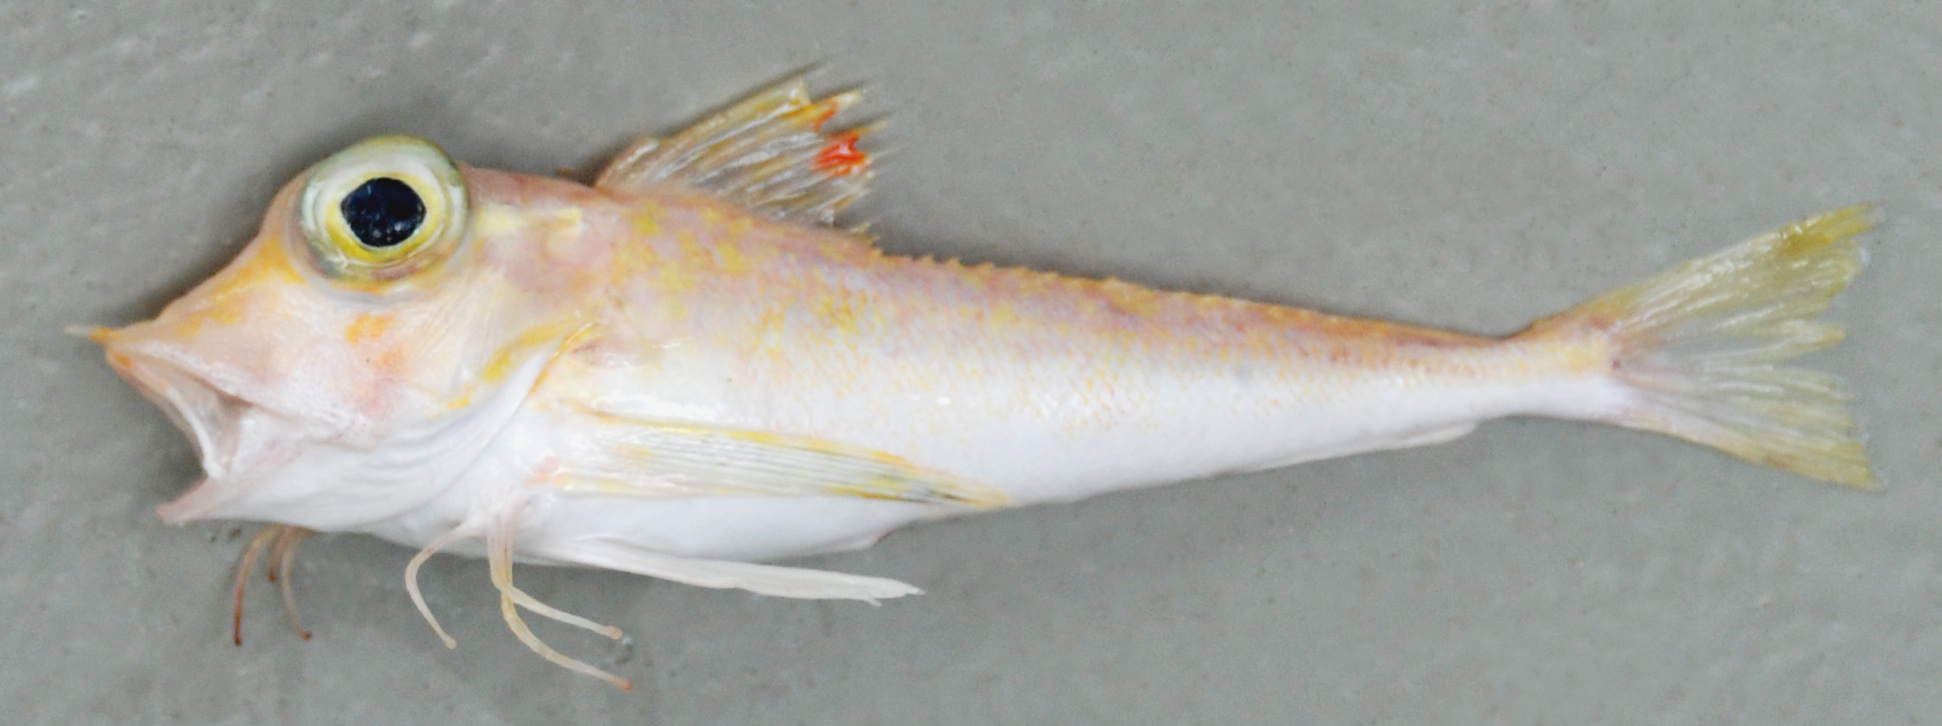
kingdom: Animalia
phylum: Chordata
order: Scorpaeniformes
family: Triglidae
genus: Lepidotrigla
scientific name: Lepidotrigla
